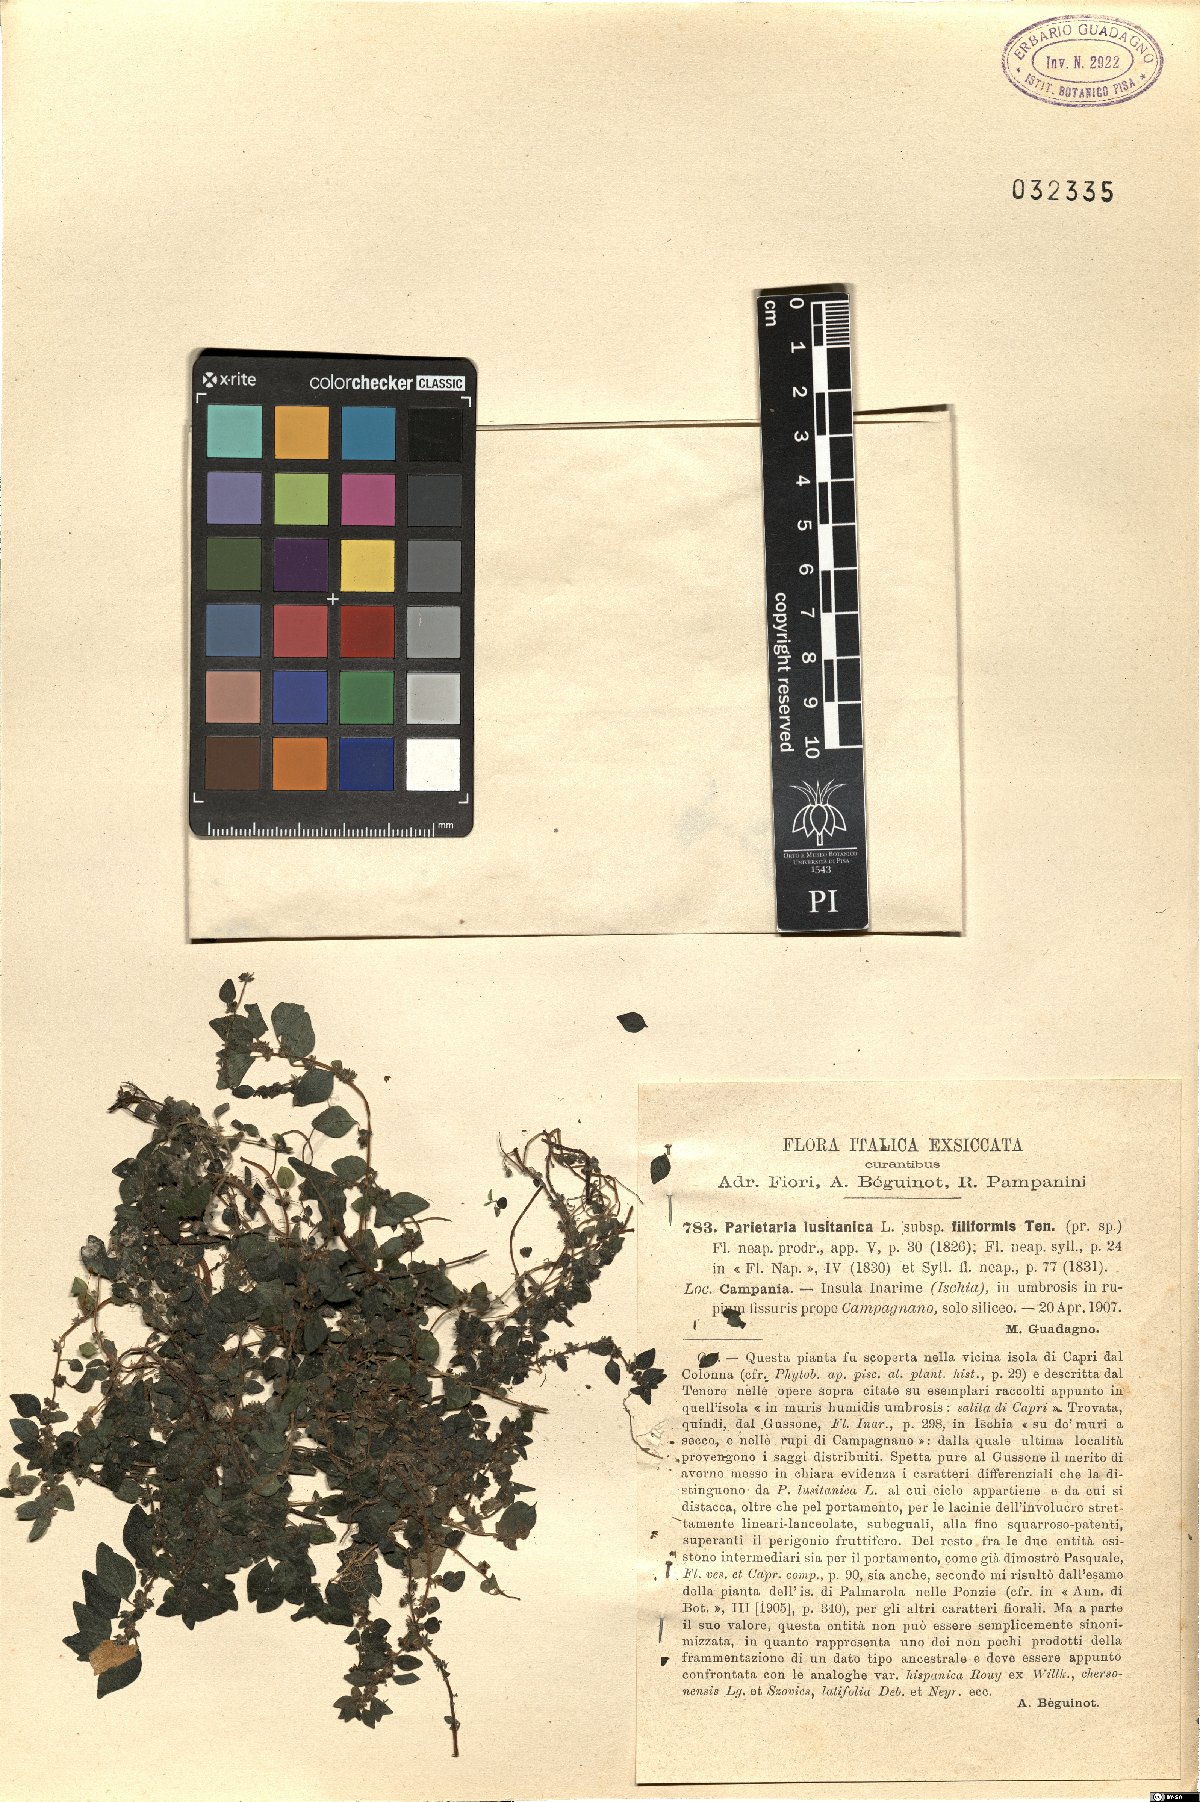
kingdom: Plantae
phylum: Tracheophyta
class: Magnoliopsida
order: Rosales
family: Urticaceae
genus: Parietaria
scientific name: Parietaria lusitanica
